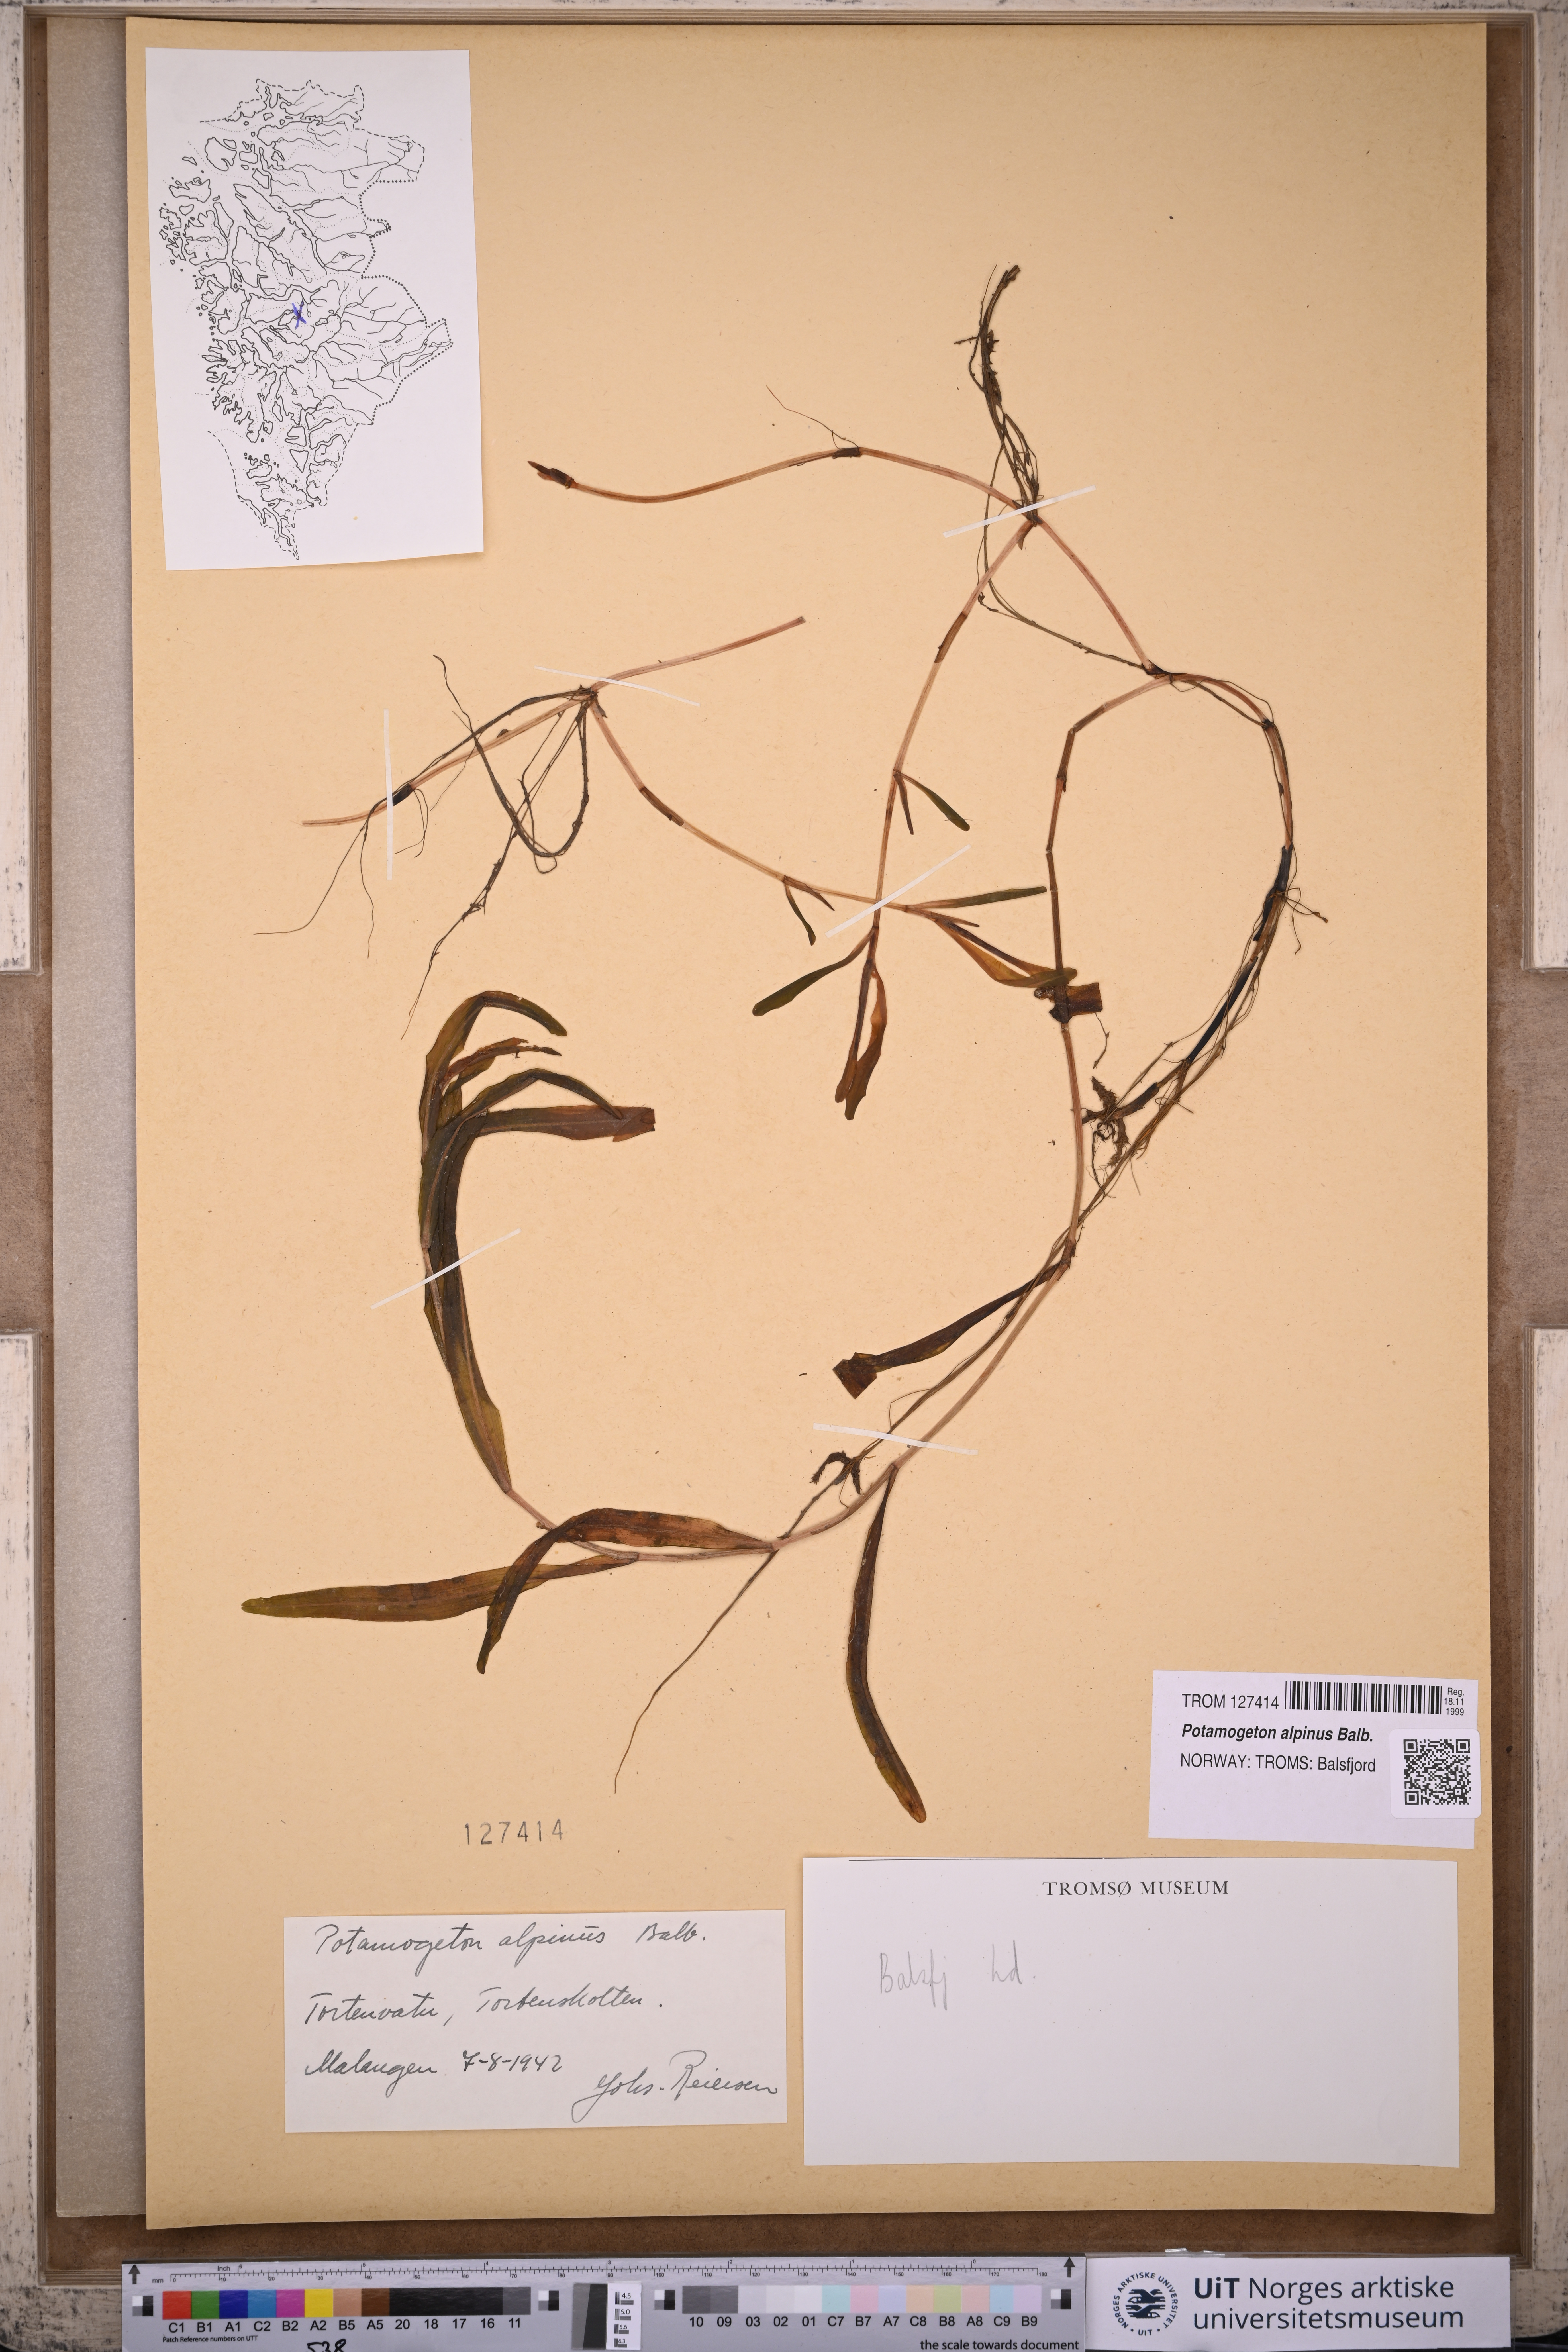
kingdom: Plantae
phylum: Tracheophyta
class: Liliopsida
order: Alismatales
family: Potamogetonaceae
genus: Potamogeton
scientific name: Potamogeton alpinus
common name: Red pondweed
